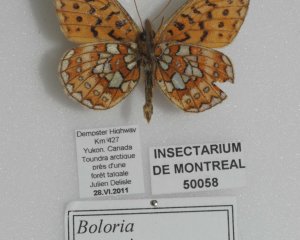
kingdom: Animalia
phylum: Arthropoda
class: Insecta
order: Lepidoptera
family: Nymphalidae
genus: Boloria
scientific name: Boloria eunomia
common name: Bog Fritillary
